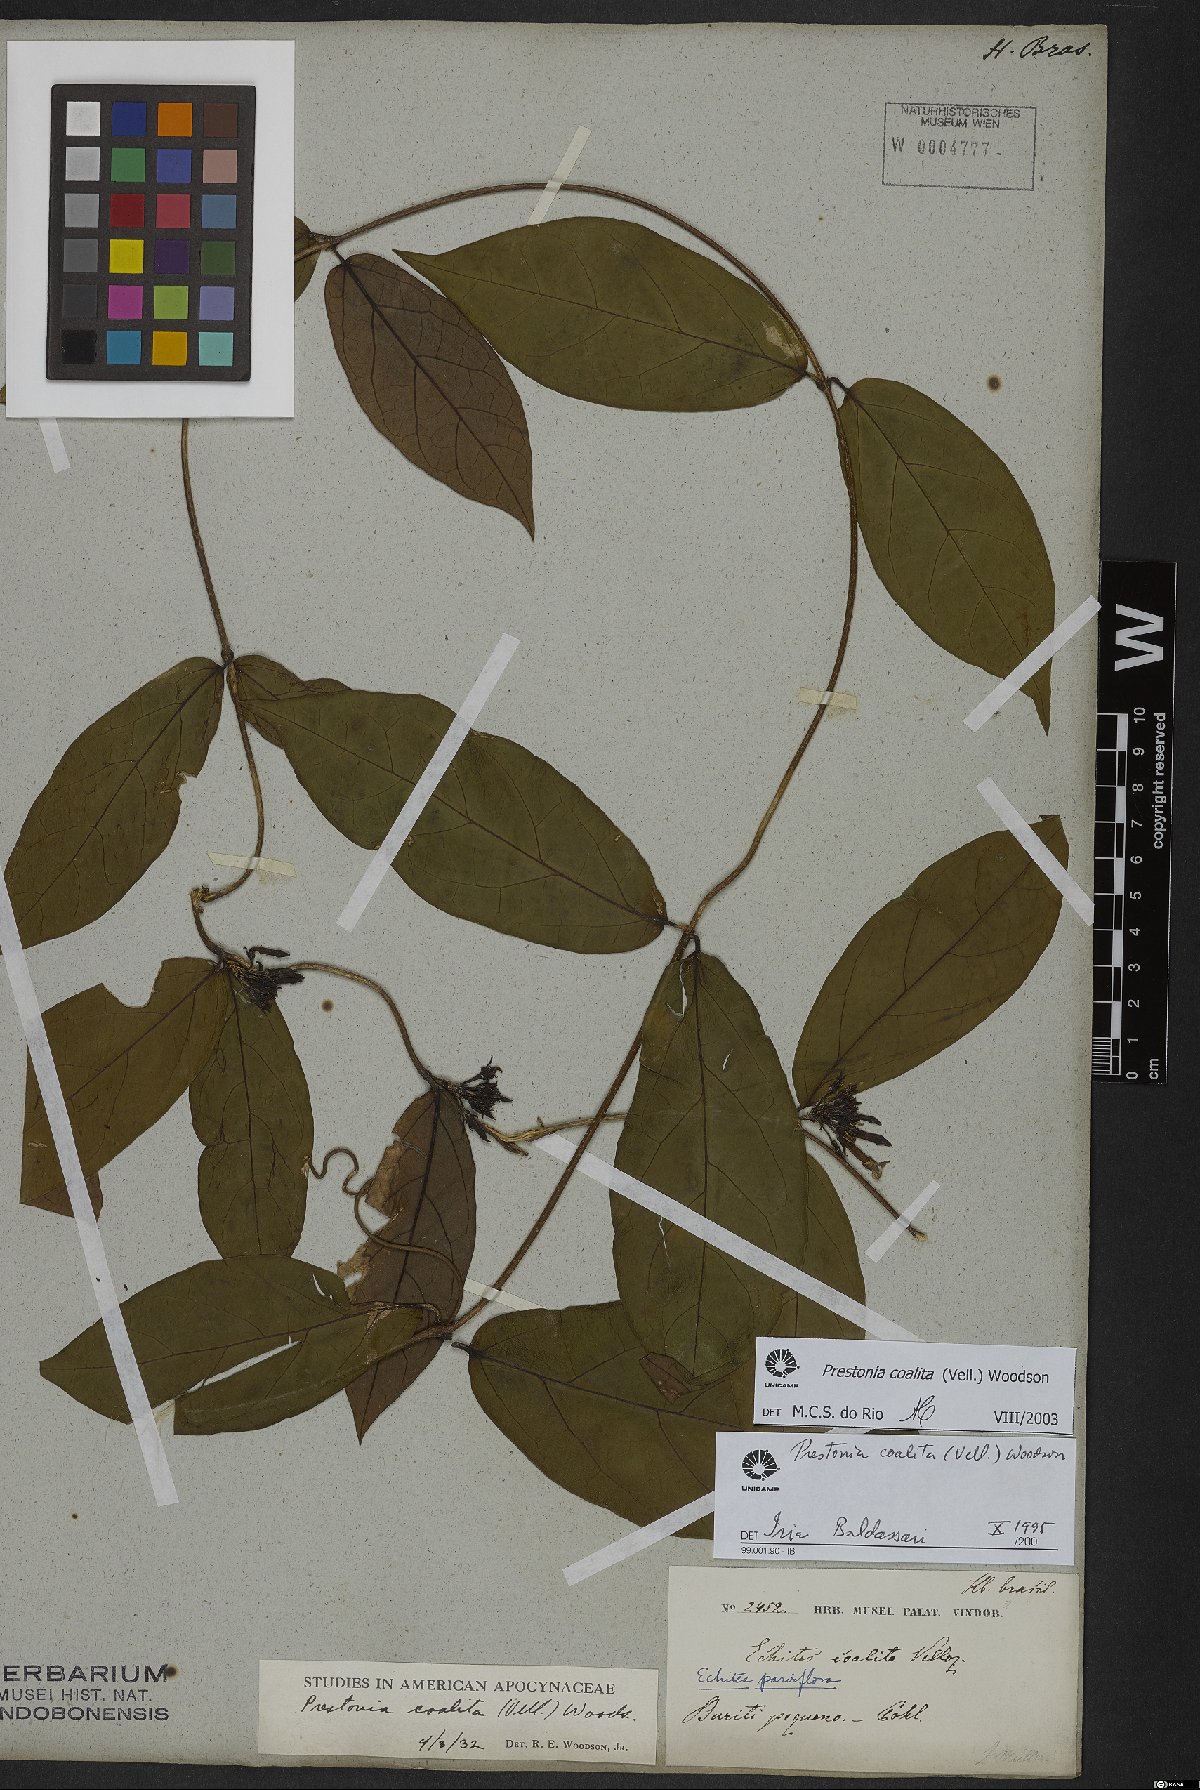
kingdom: Plantae
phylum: Tracheophyta
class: Magnoliopsida
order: Gentianales
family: Apocynaceae
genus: Prestonia
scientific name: Prestonia coalita
